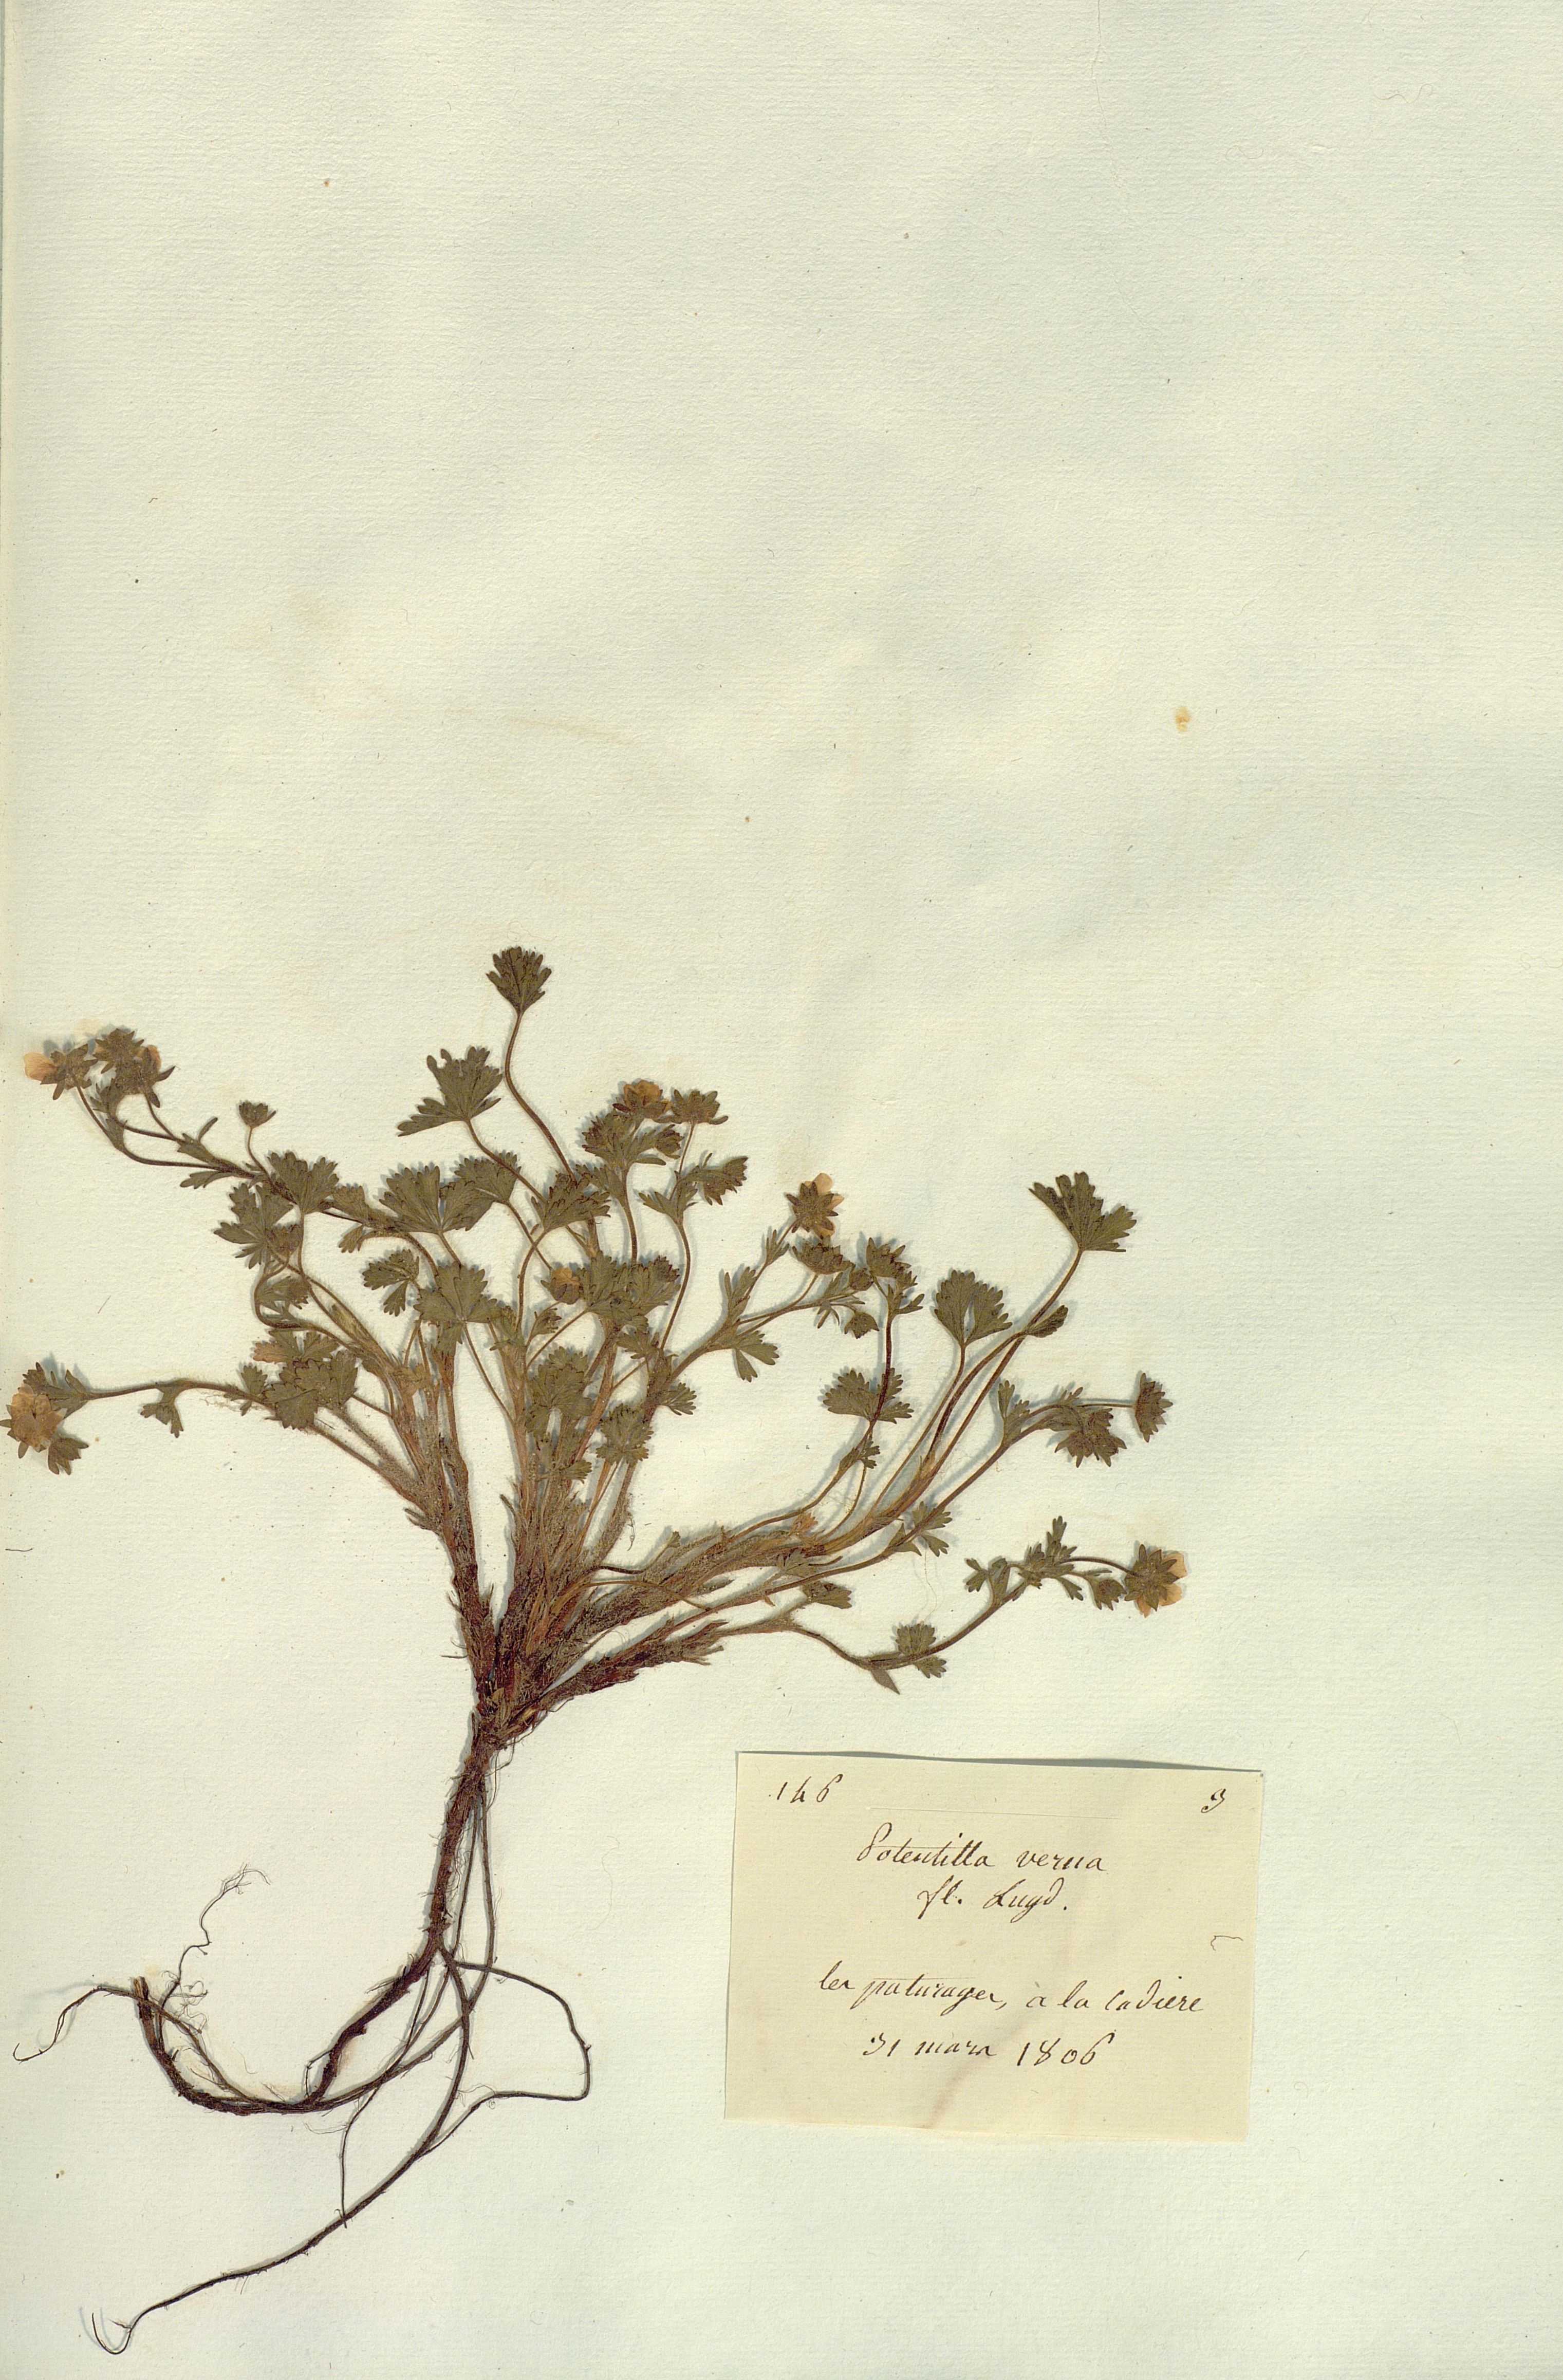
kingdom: Plantae
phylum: Tracheophyta
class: Magnoliopsida
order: Rosales
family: Rosaceae
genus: Potentilla
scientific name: Potentilla verna
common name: Spring cinquefoil
